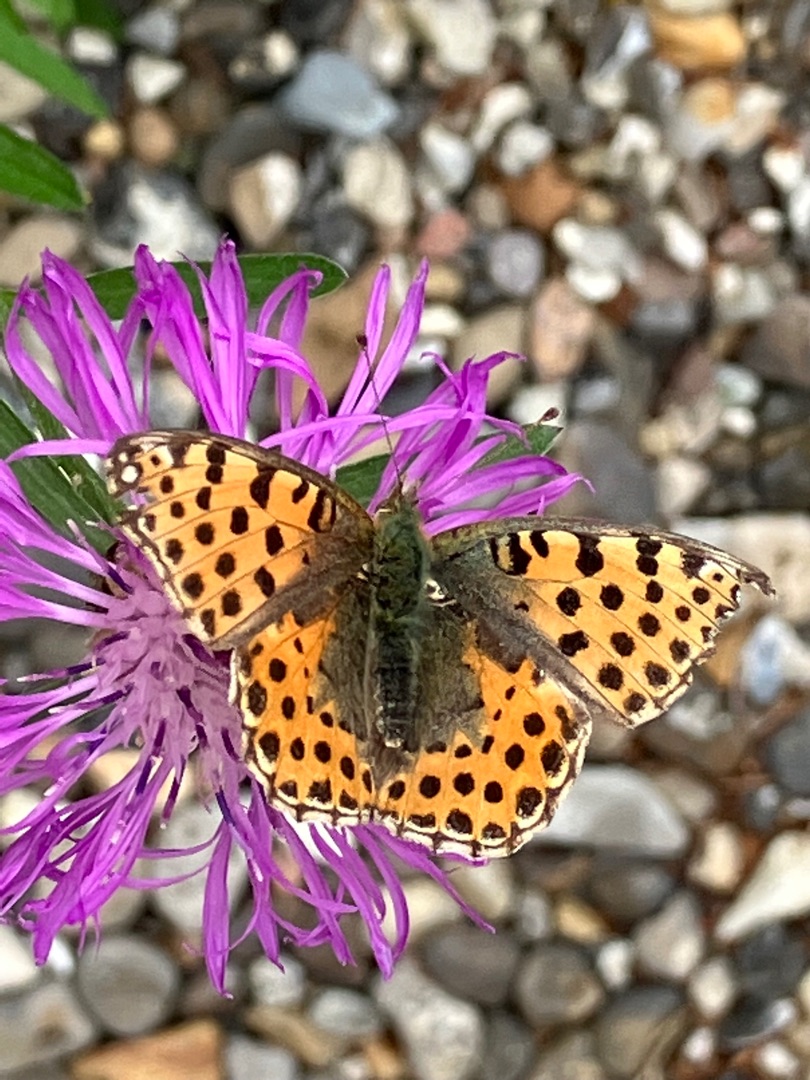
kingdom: Animalia
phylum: Arthropoda
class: Insecta
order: Lepidoptera
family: Nymphalidae
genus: Issoria
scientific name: Issoria lathonia
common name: Storplettet perlemorsommerfugl
